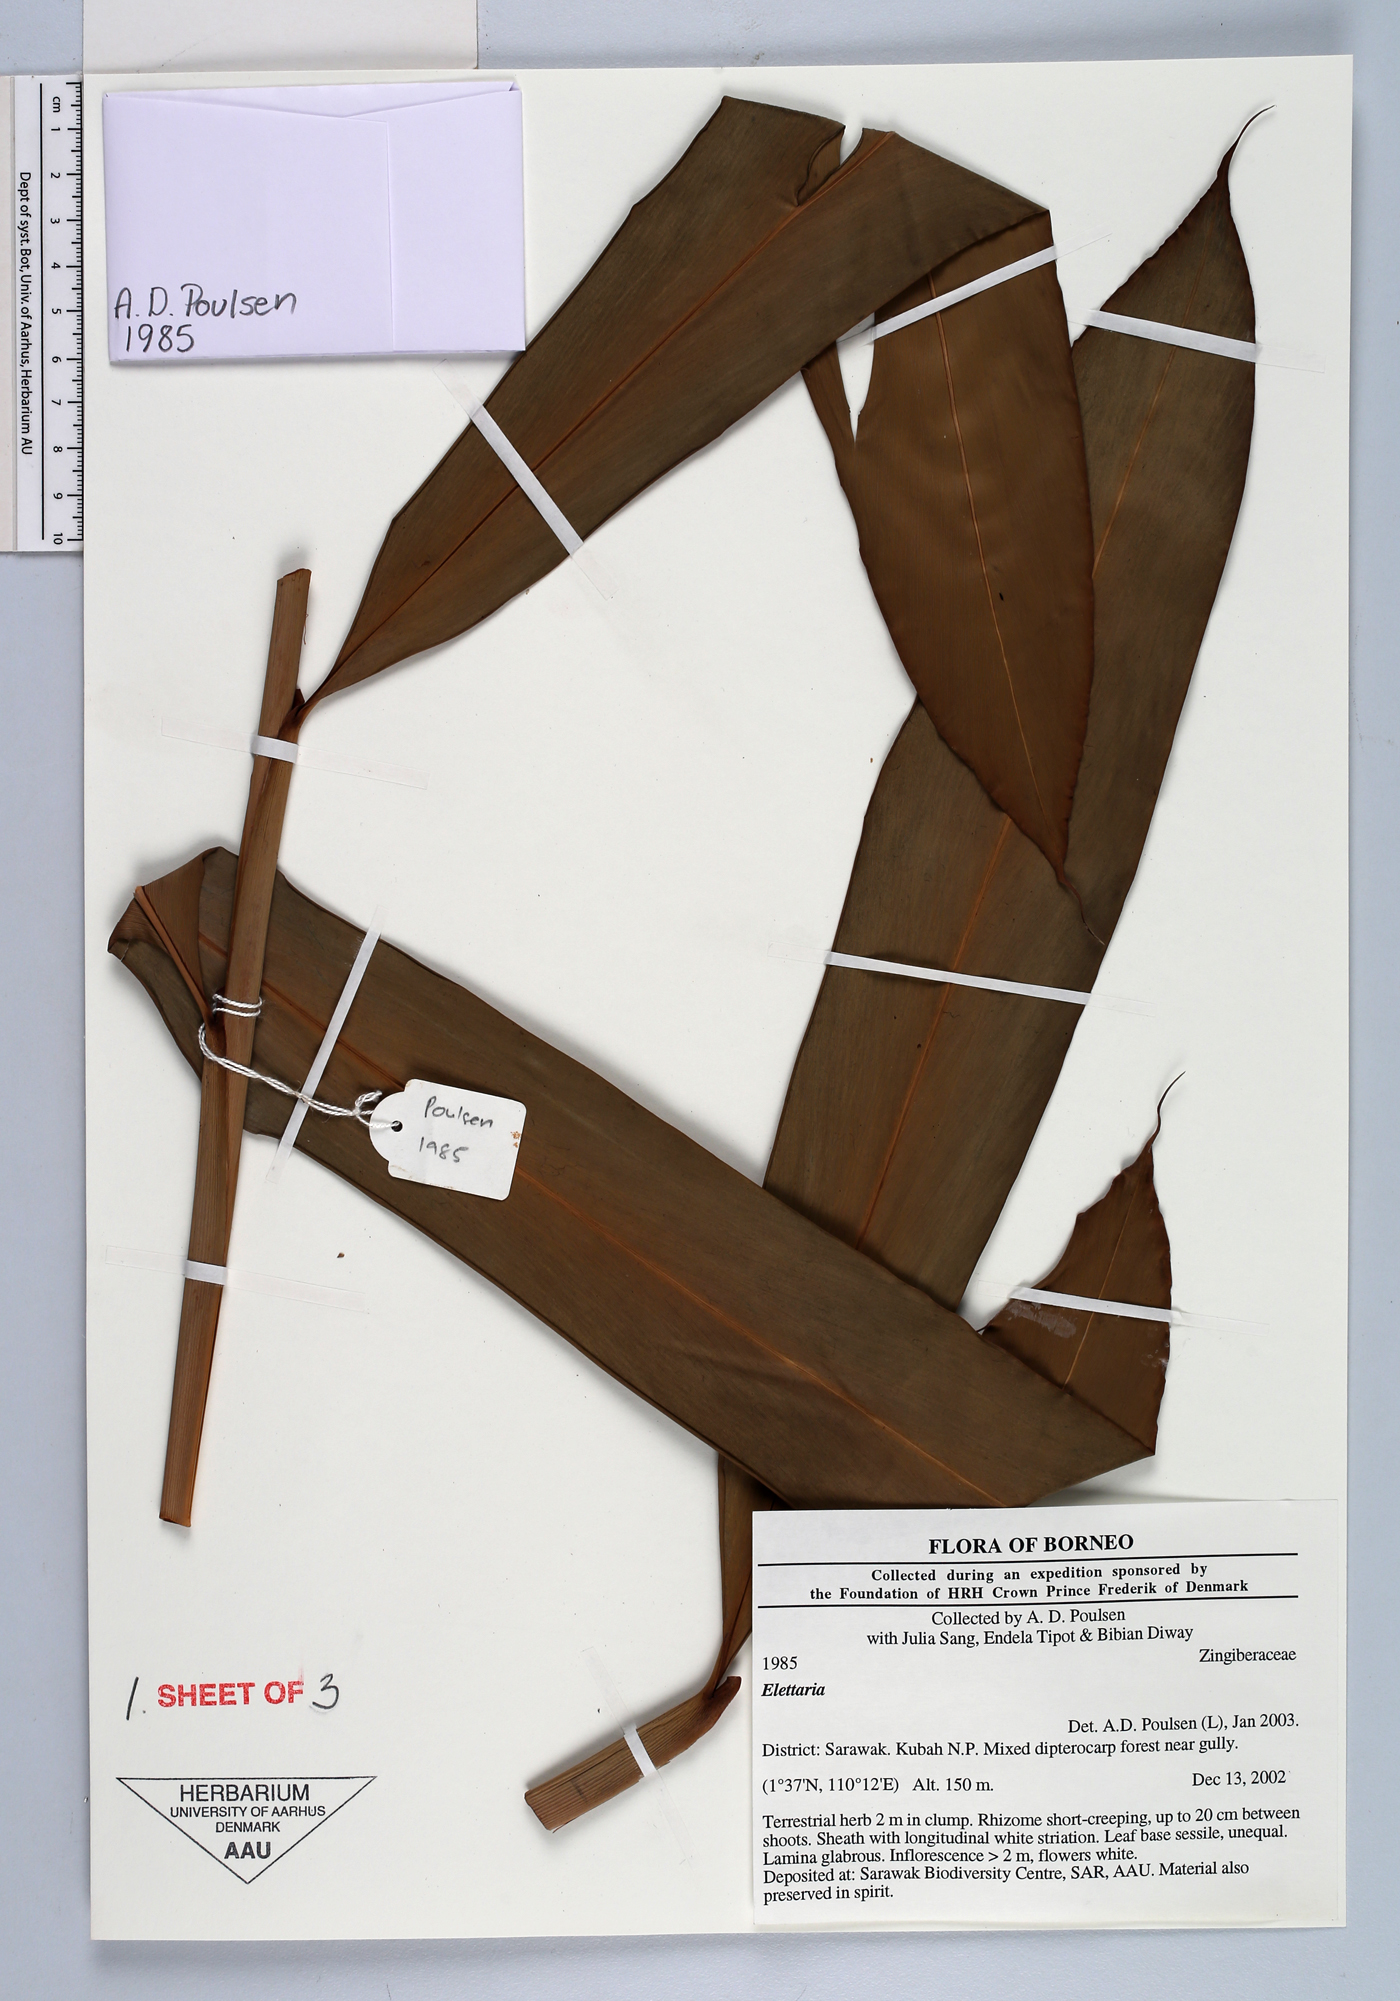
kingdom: Plantae
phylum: Tracheophyta
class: Liliopsida
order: Zingiberales
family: Zingiberaceae
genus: Sulettaria
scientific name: Sulettaria
